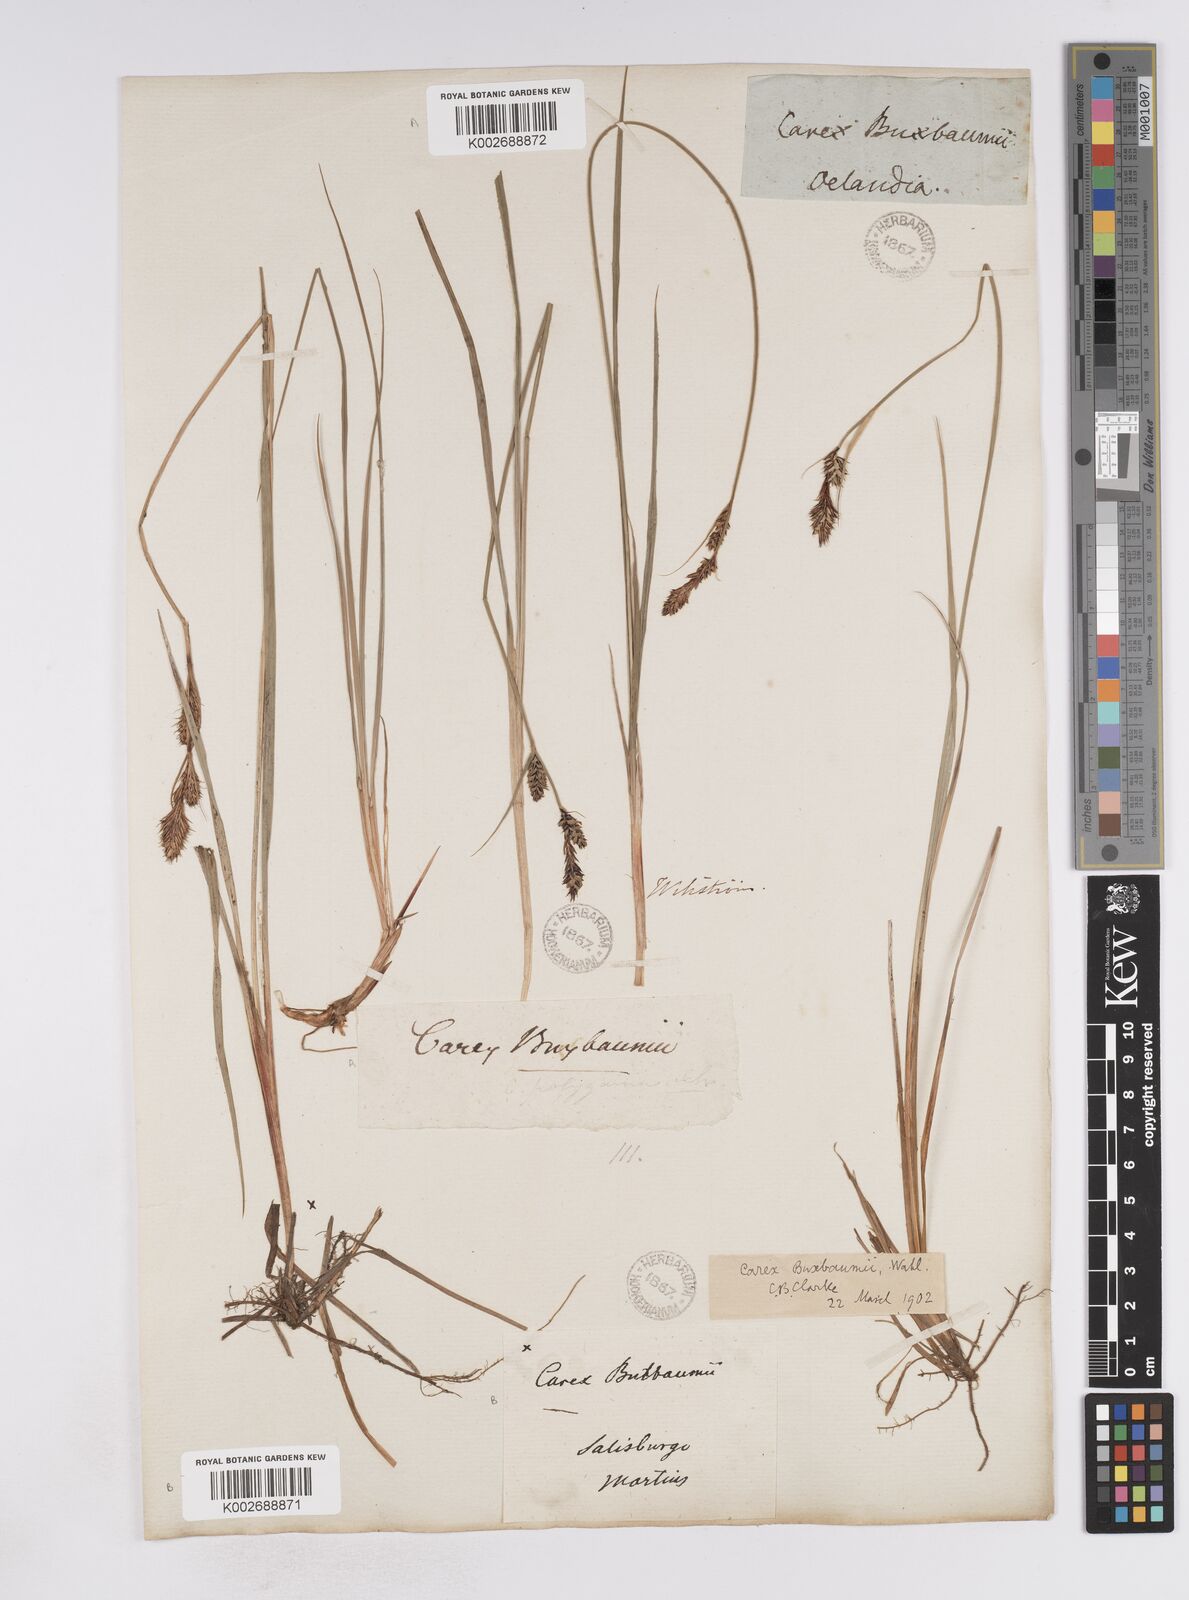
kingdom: Plantae
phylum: Tracheophyta
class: Liliopsida
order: Poales
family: Cyperaceae
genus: Carex
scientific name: Carex buxbaumii
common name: Club sedge
